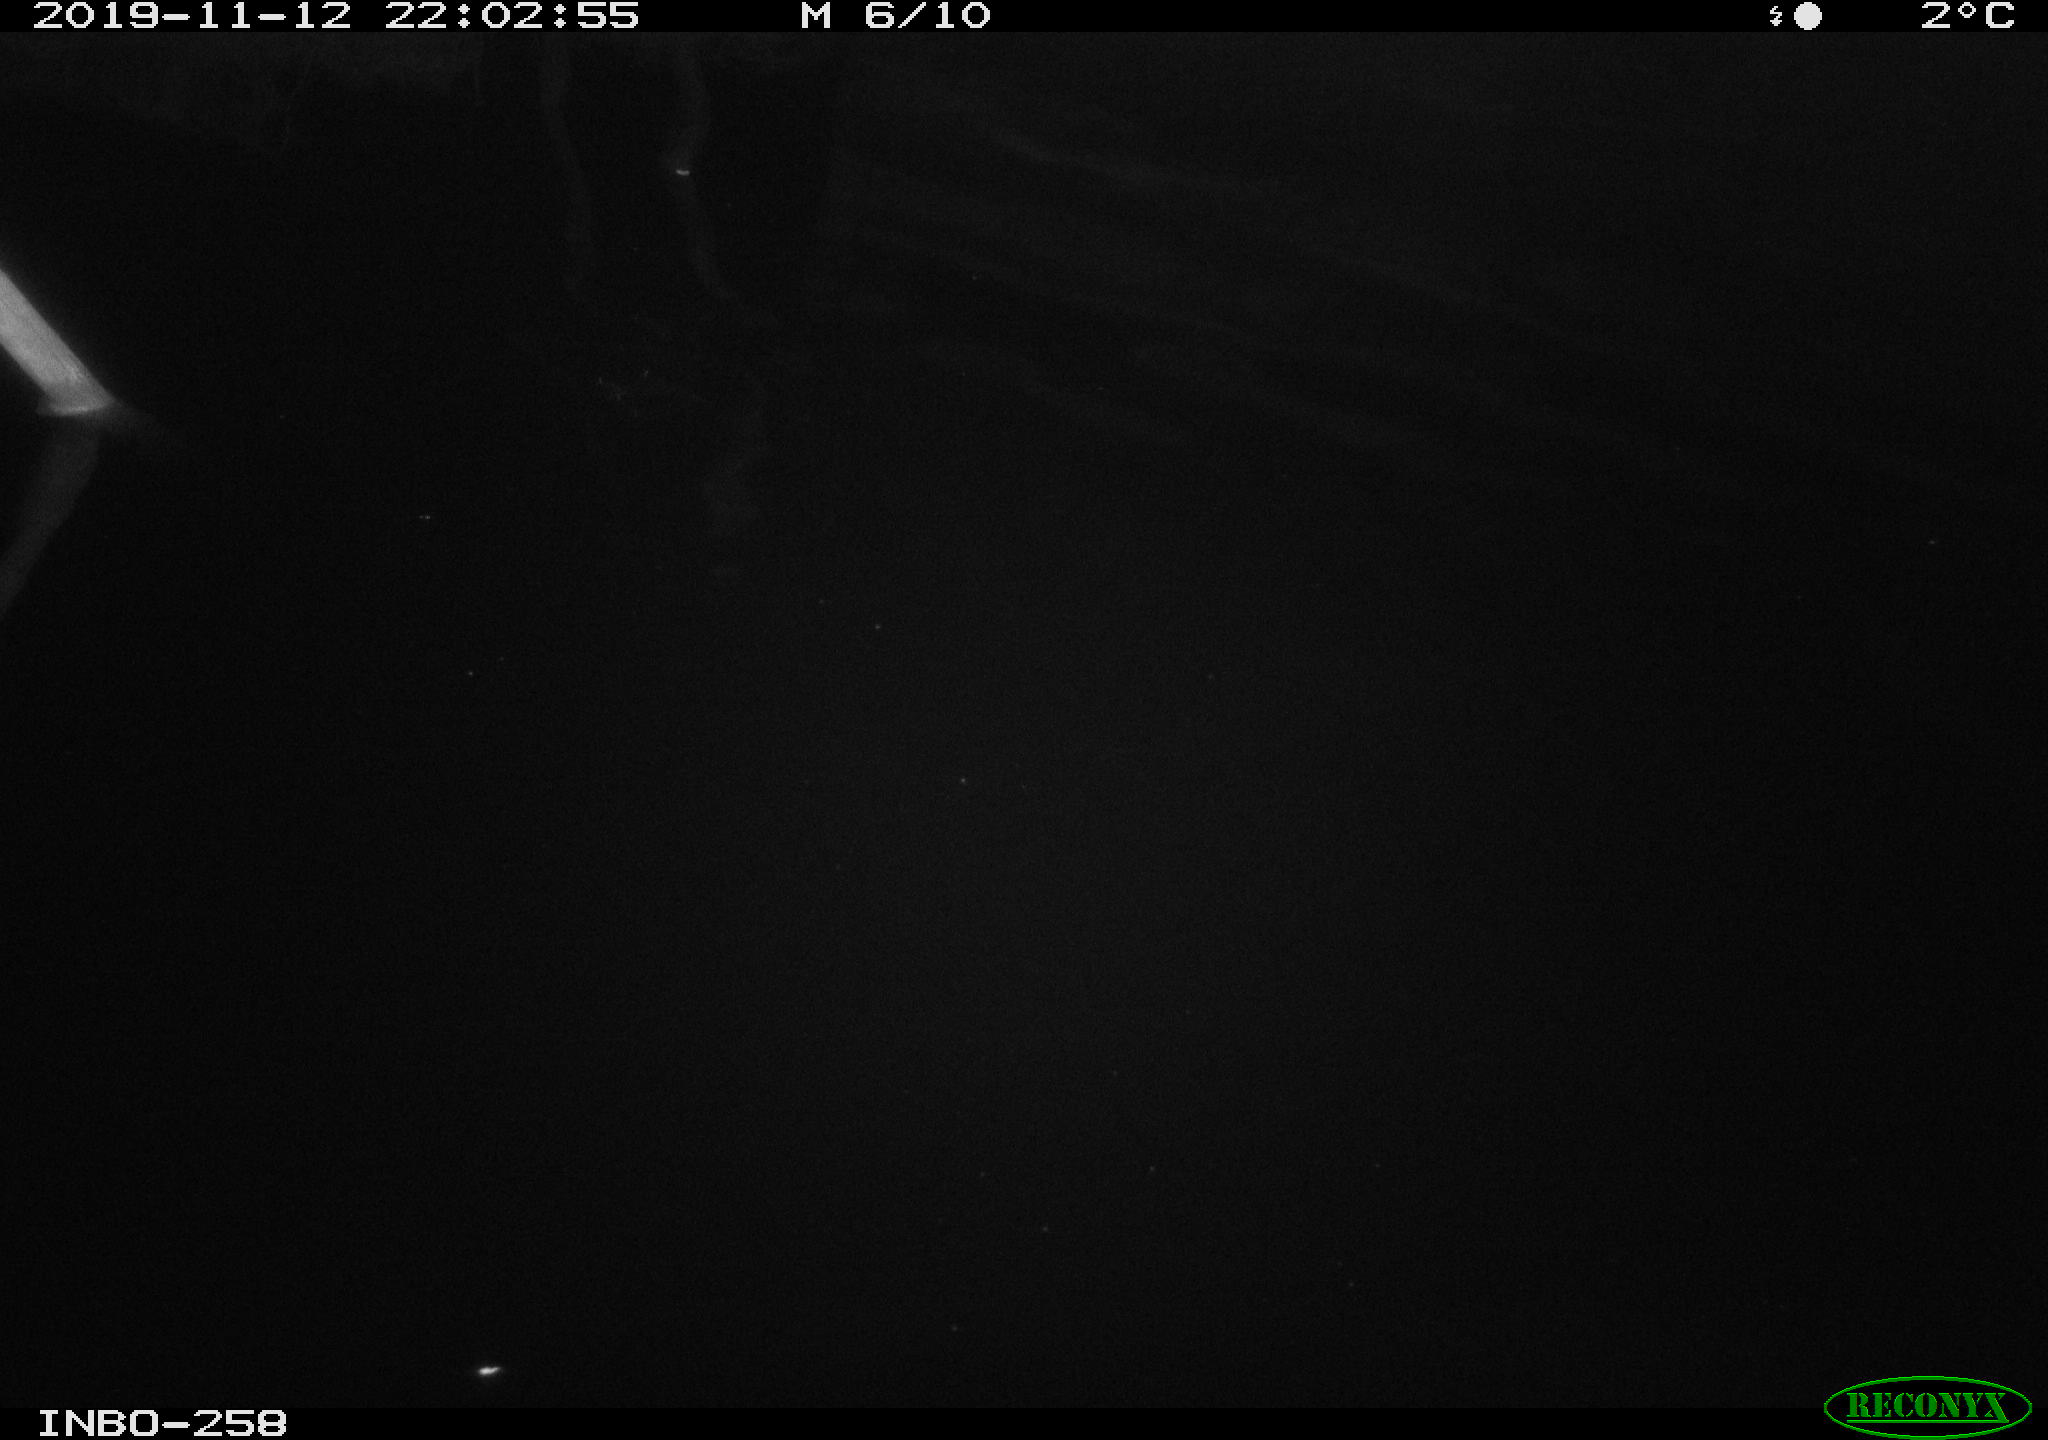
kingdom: Animalia
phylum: Chordata
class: Aves
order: Anseriformes
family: Anatidae
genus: Anas
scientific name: Anas platyrhynchos
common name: Mallard
